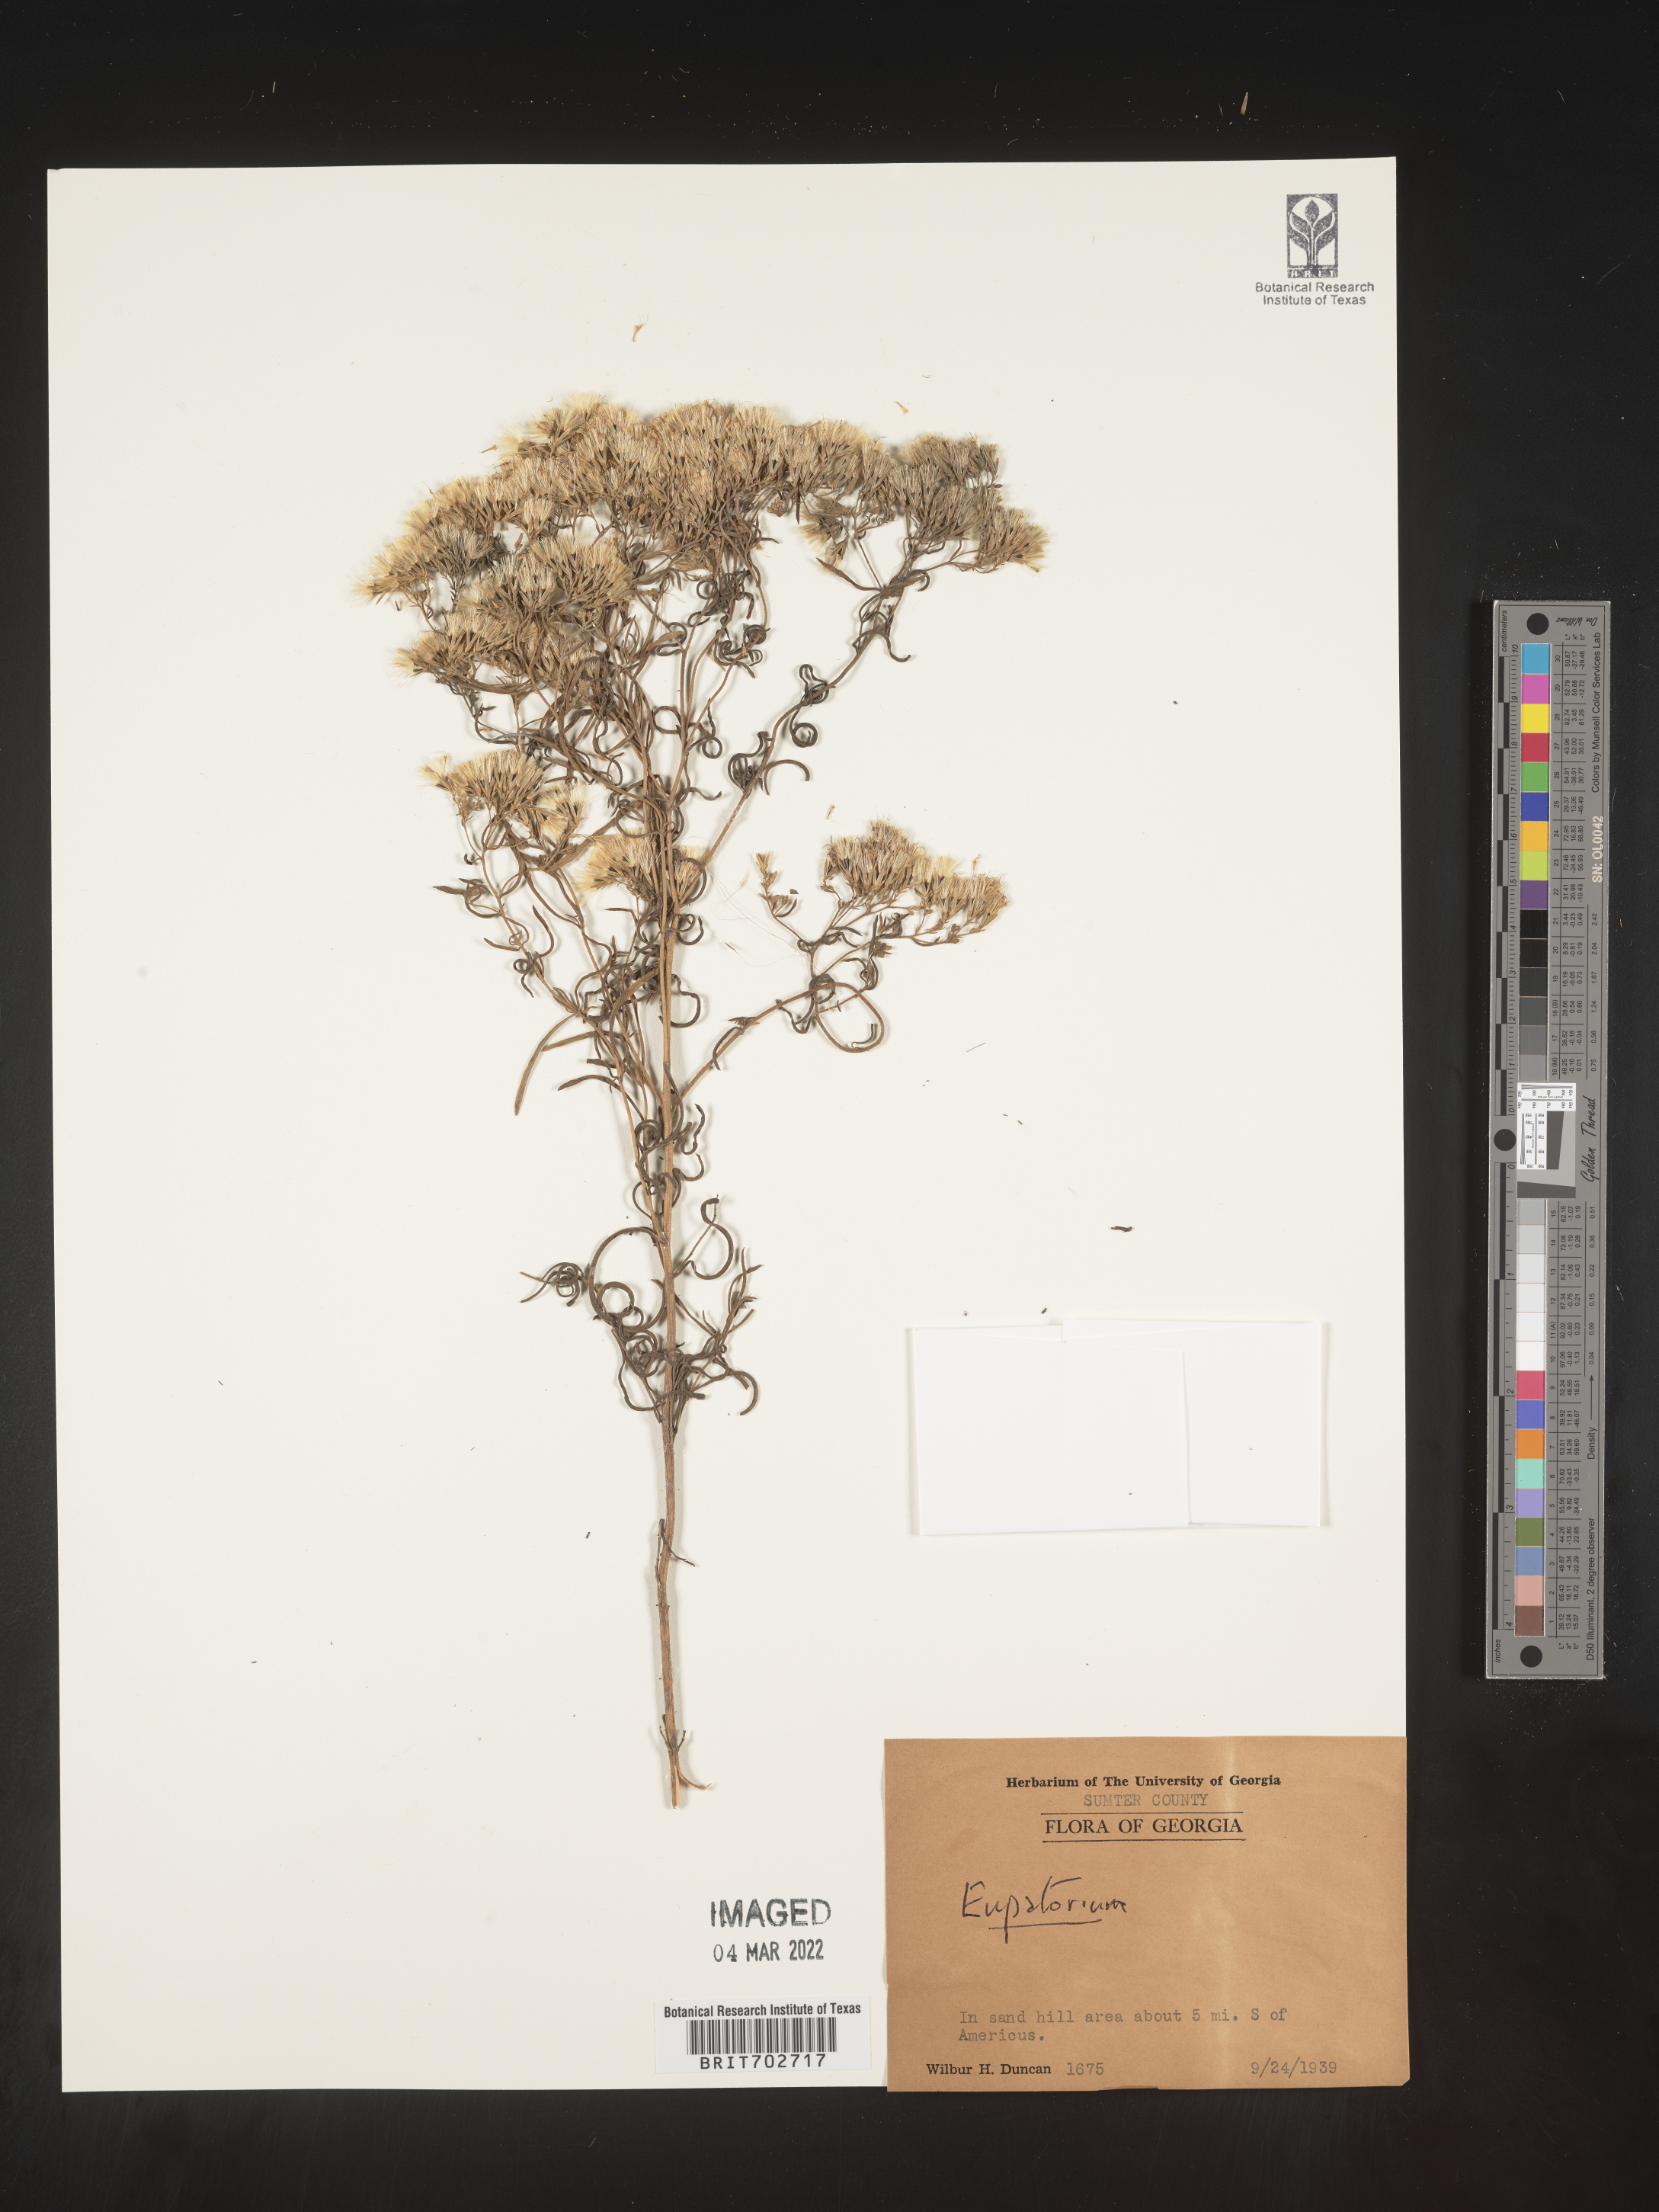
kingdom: Plantae
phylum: Tracheophyta
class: Magnoliopsida
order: Asterales
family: Asteraceae
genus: Eupatorium
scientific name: Eupatorium
